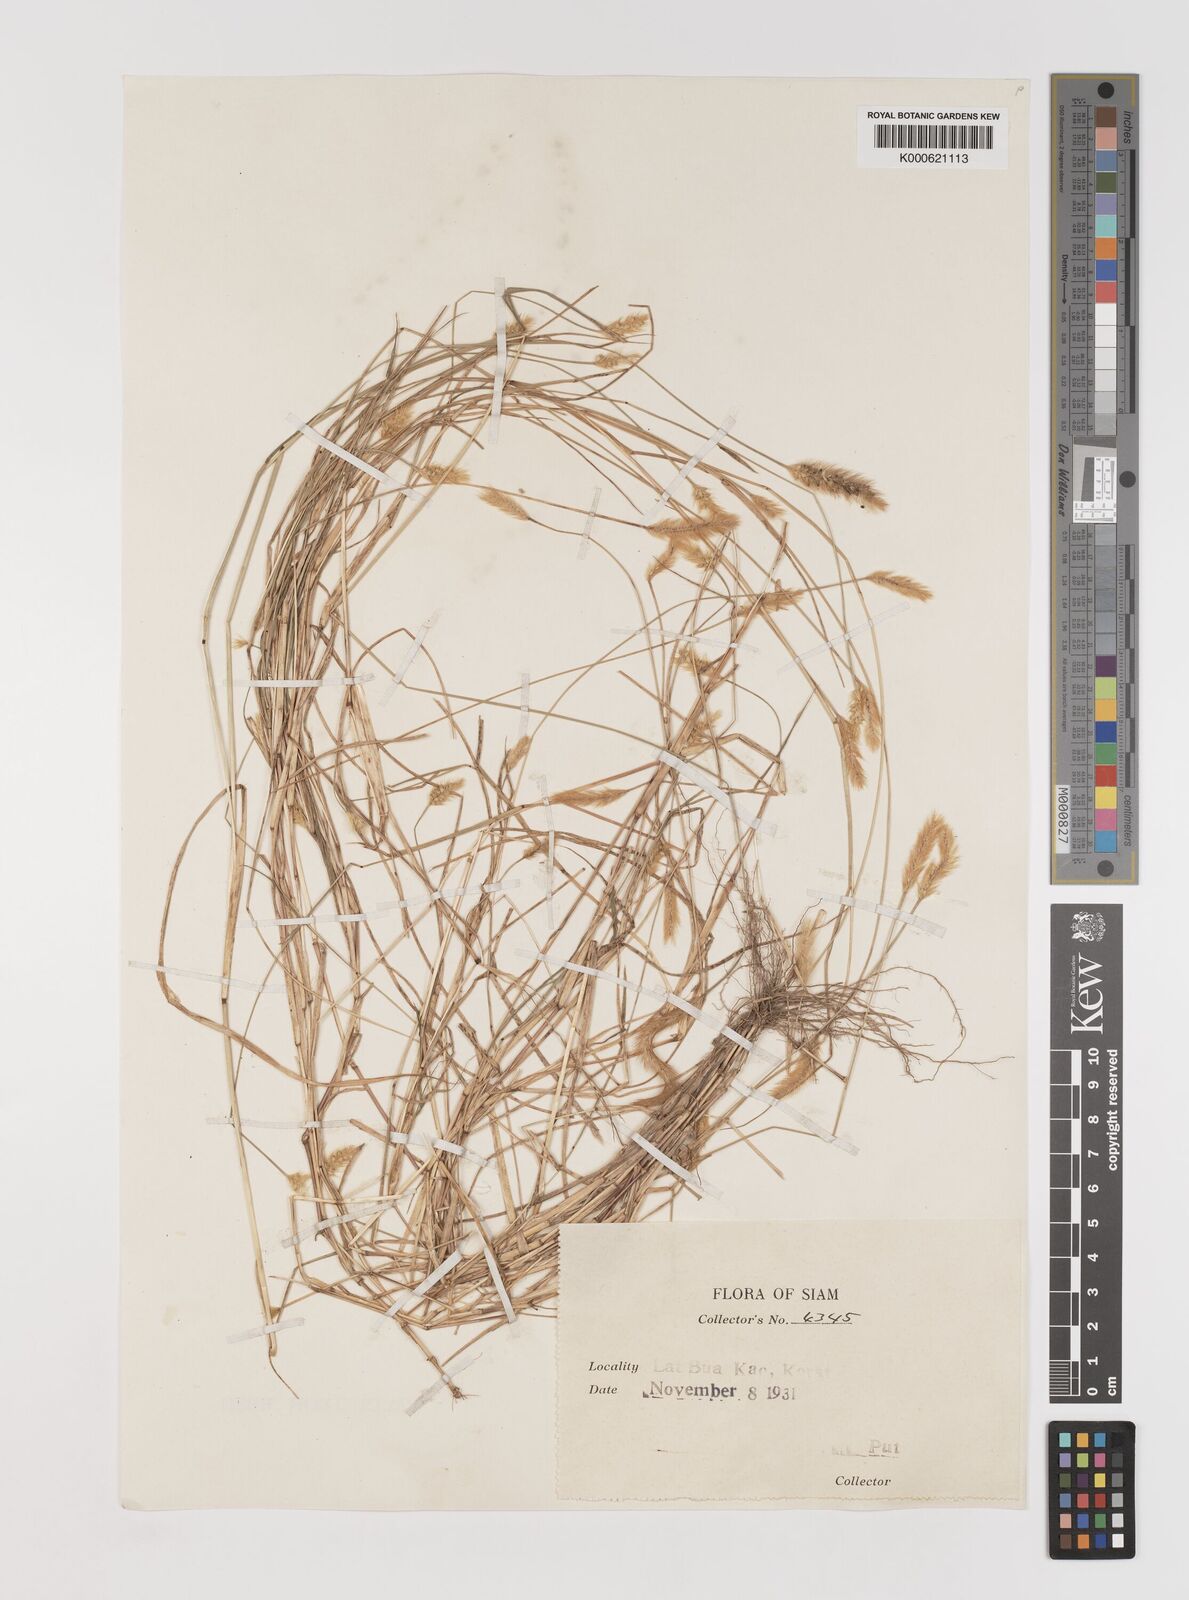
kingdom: Plantae
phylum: Tracheophyta
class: Liliopsida
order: Poales
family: Poaceae
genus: Setaria
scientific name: Setaria pumila
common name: Yellow bristle-grass
